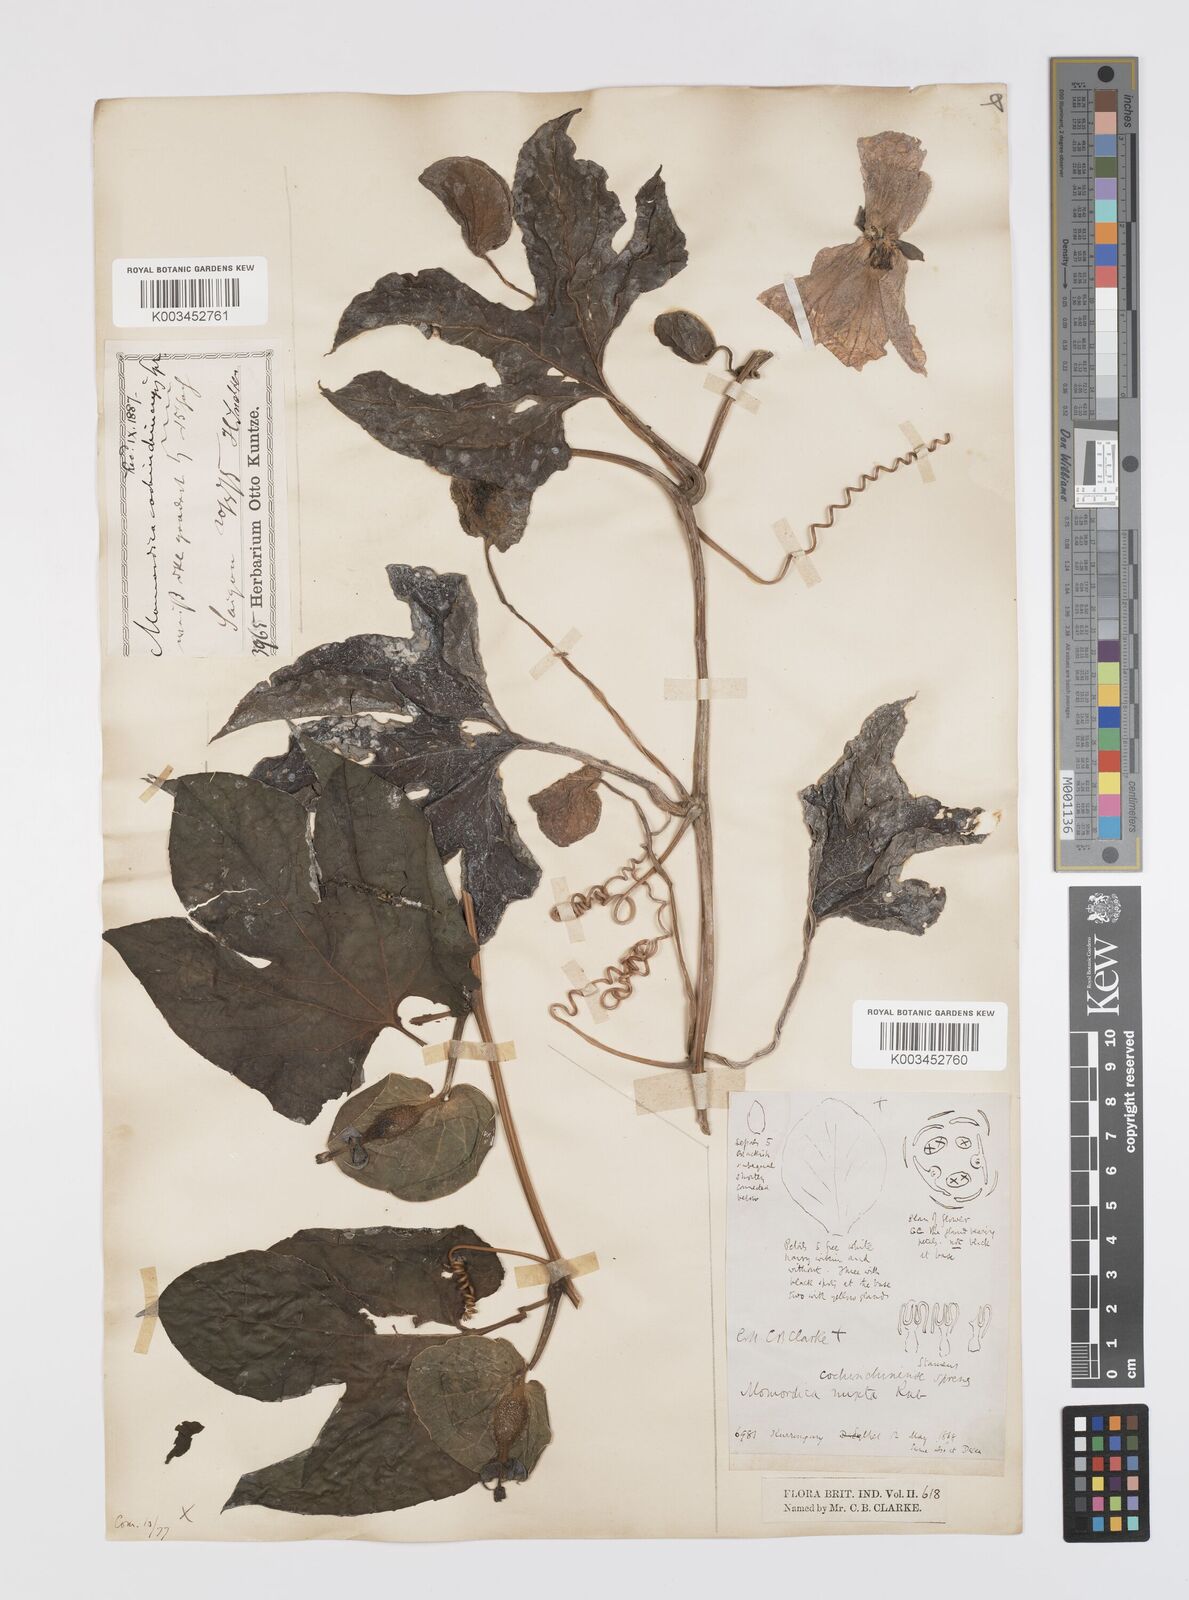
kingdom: Plantae
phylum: Tracheophyta
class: Magnoliopsida
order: Cucurbitales
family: Cucurbitaceae
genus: Momordica
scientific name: Momordica cochinchinensis
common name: Chinese bitter-cucumber
